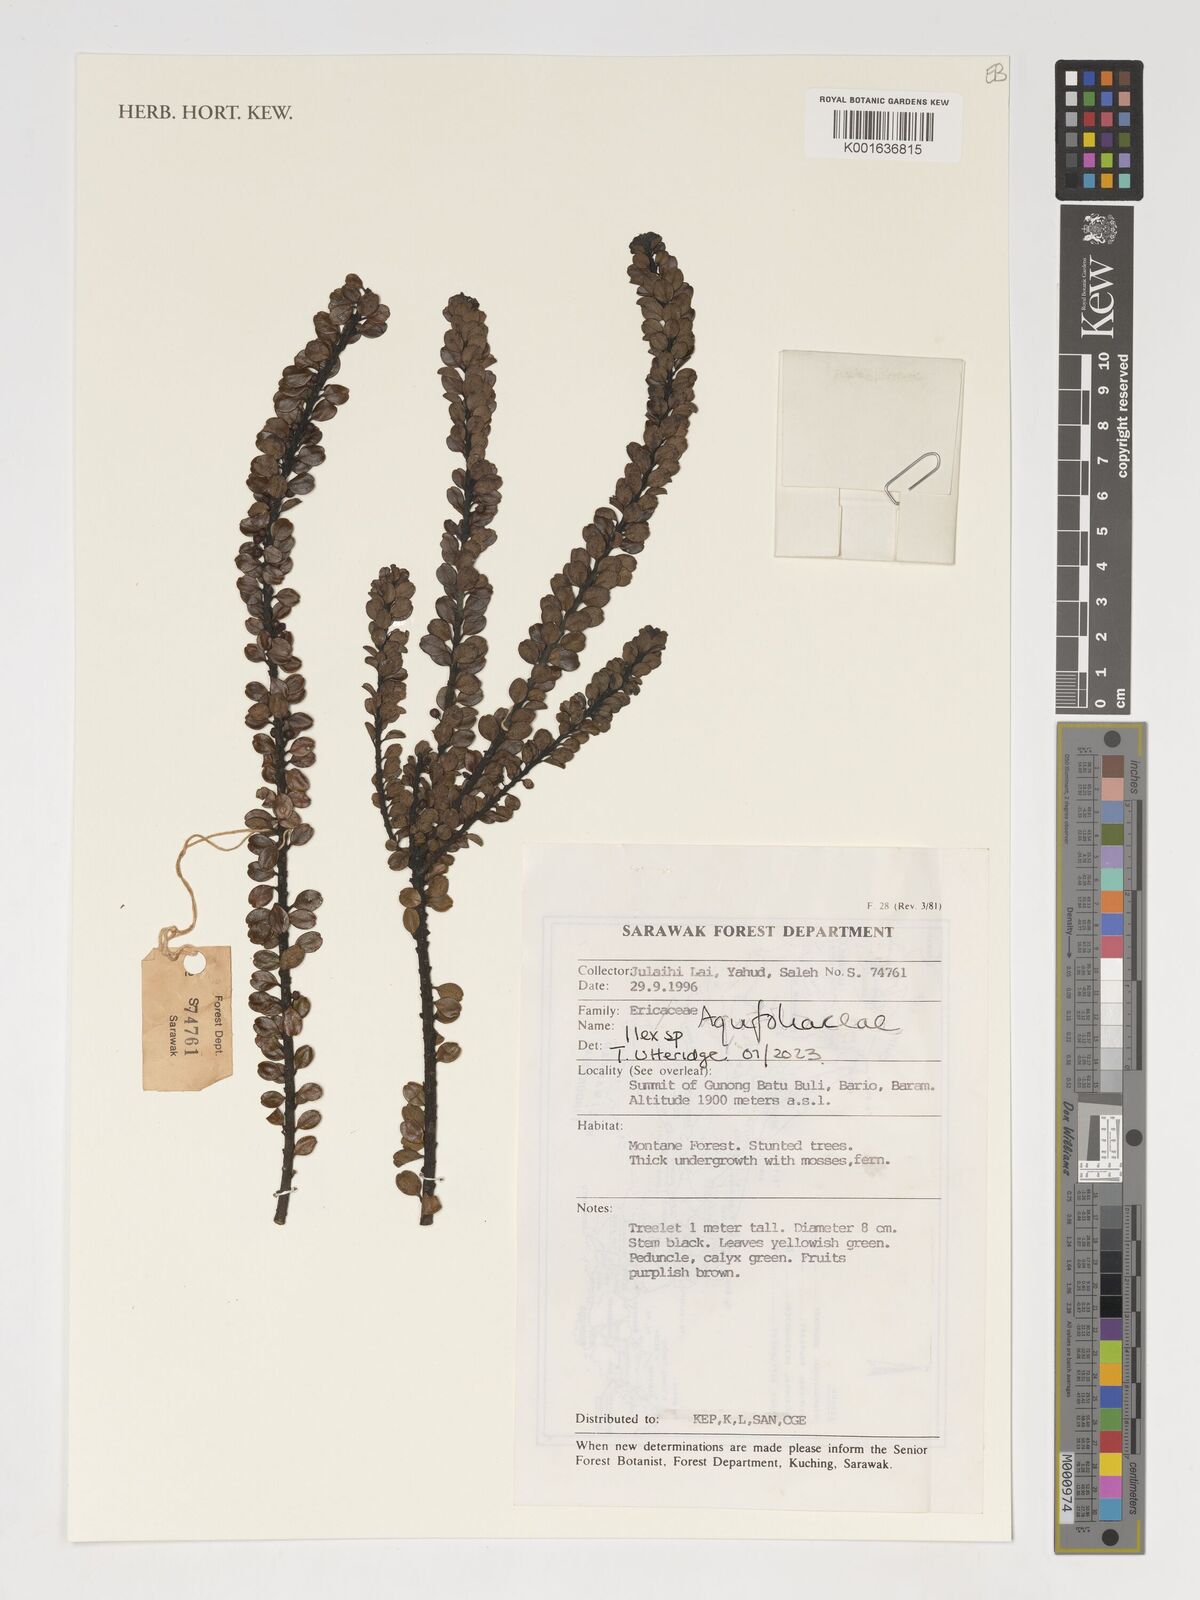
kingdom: Plantae
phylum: Tracheophyta
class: Magnoliopsida
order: Aquifoliales
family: Aquifoliaceae
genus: Ilex
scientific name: Ilex
